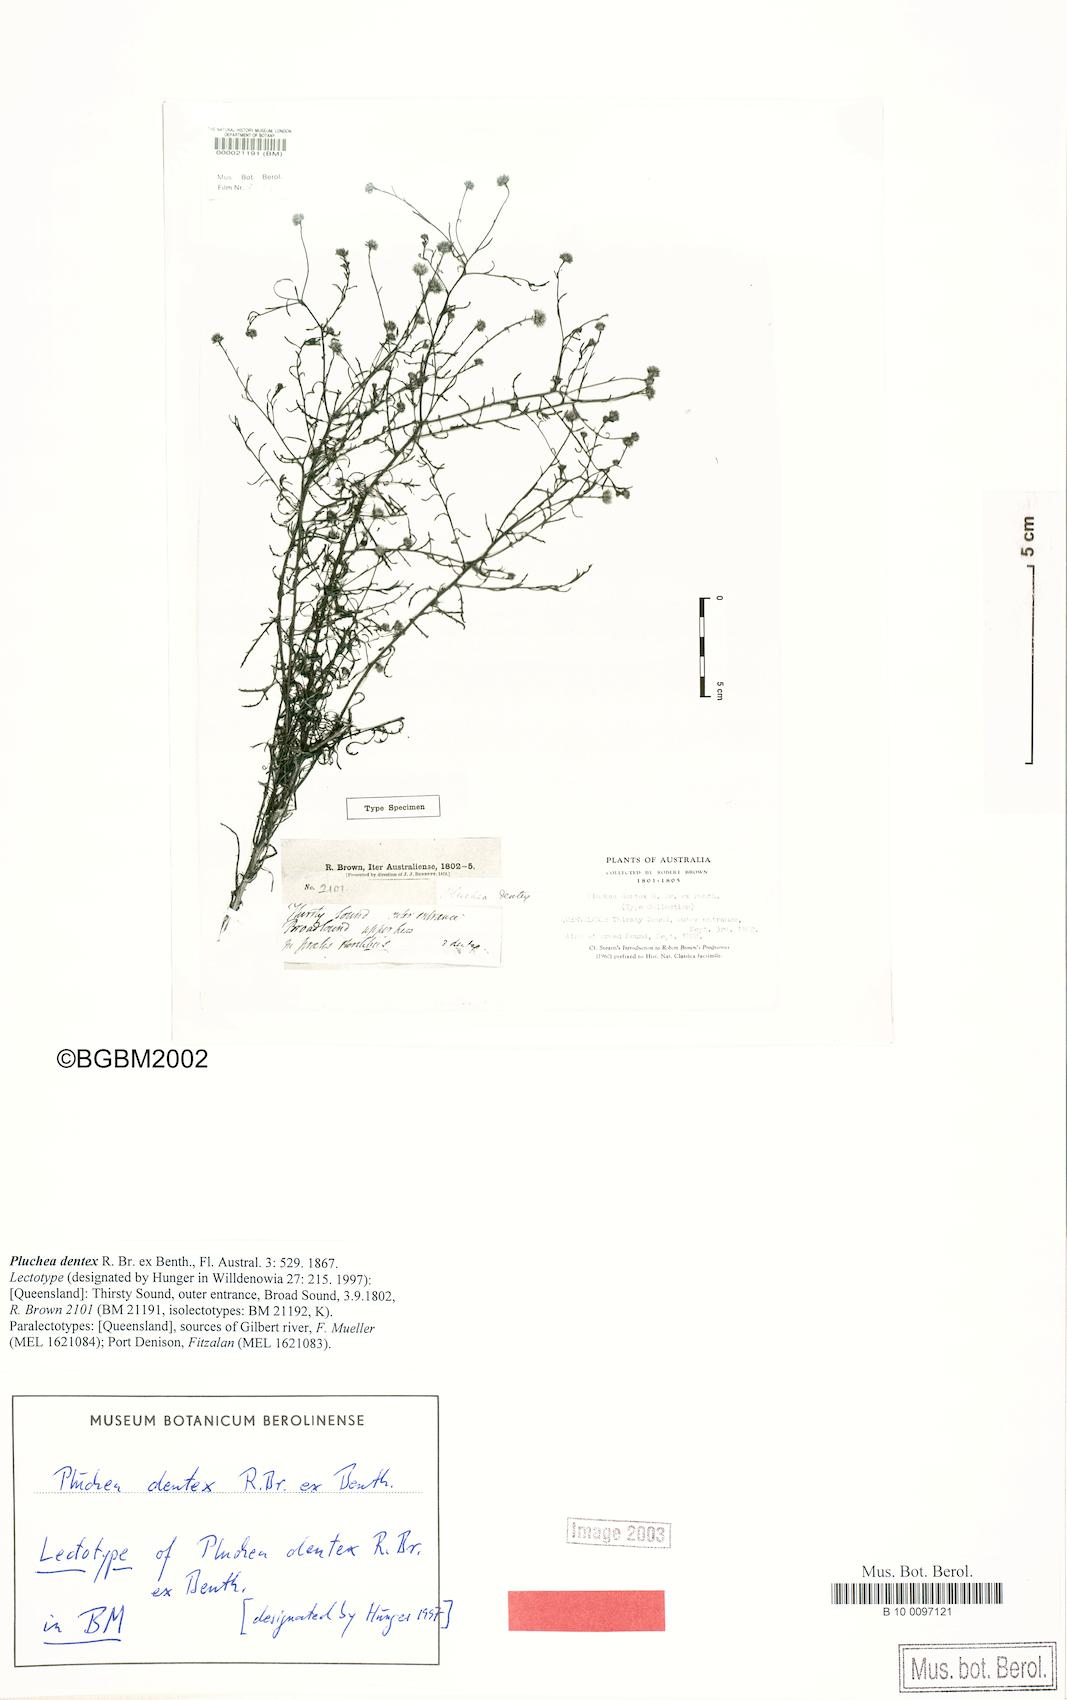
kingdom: Plantae
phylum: Tracheophyta
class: Magnoliopsida
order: Asterales
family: Asteraceae
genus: Pluchea
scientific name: Pluchea dentex
